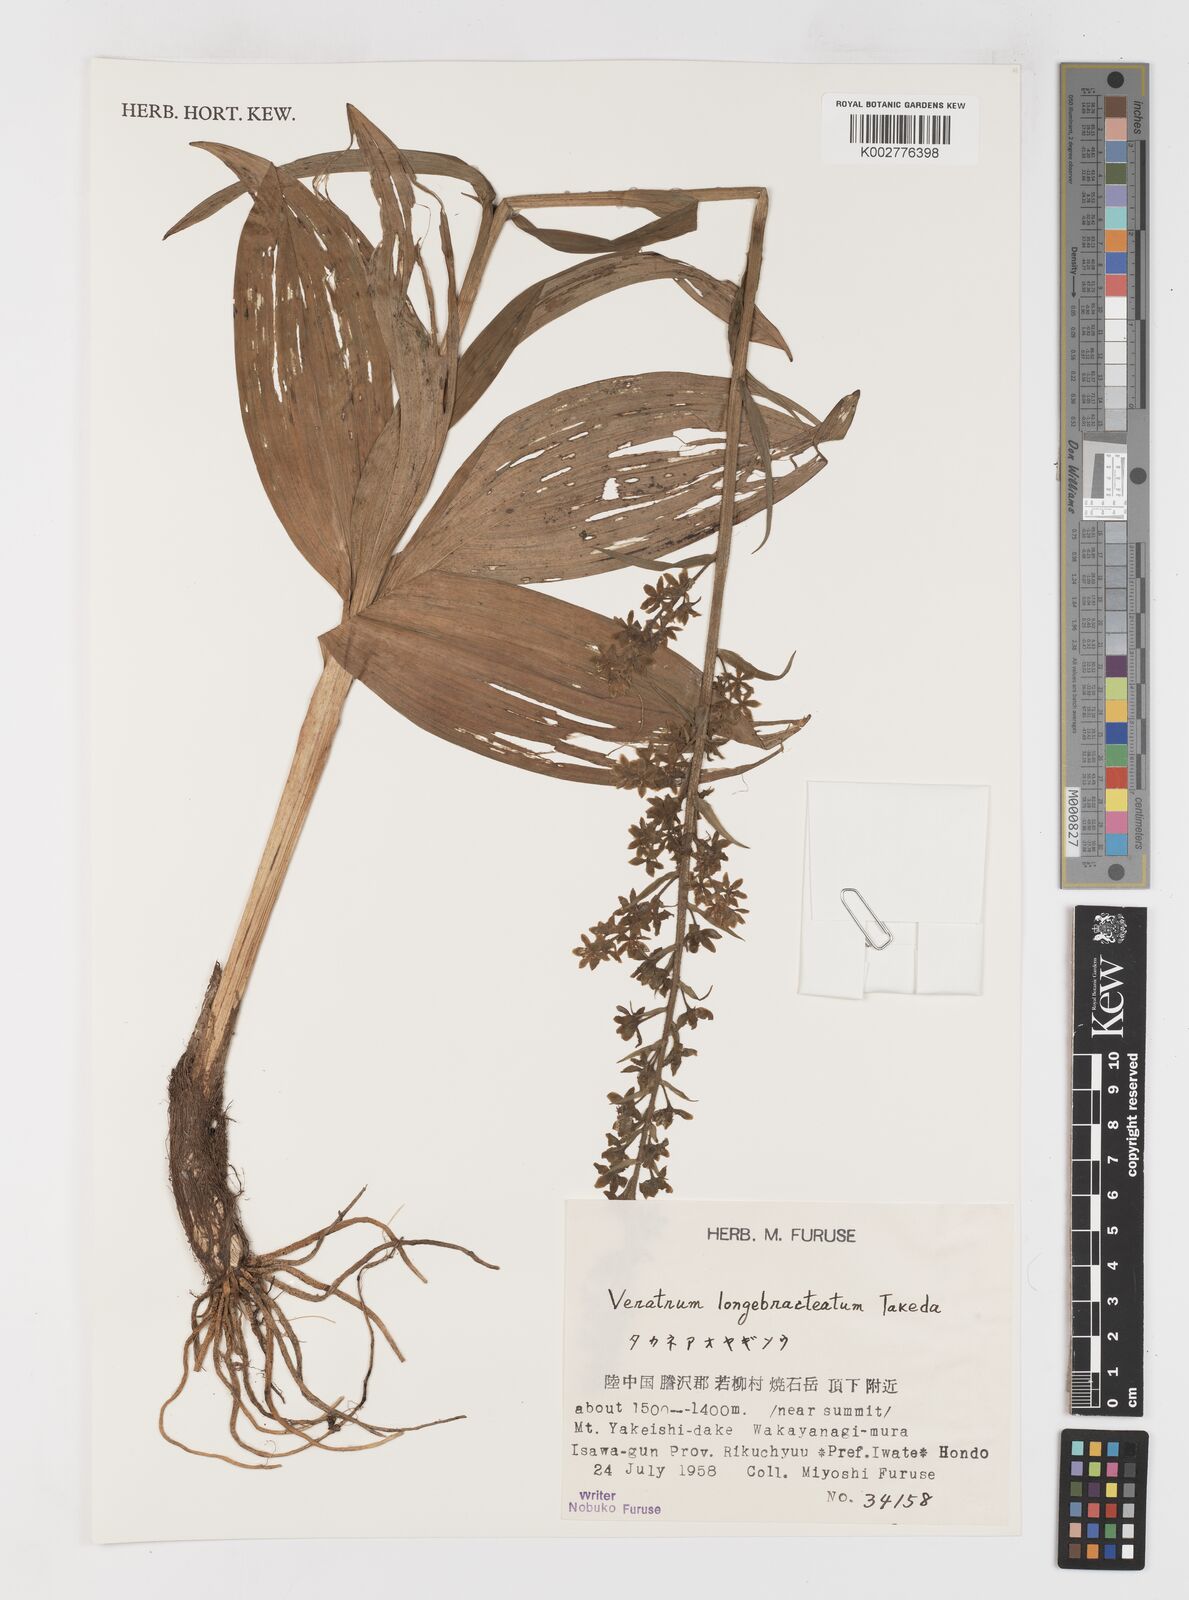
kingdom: Plantae
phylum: Tracheophyta
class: Liliopsida
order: Liliales
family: Melanthiaceae
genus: Veratrum
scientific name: Veratrum longebracteatum
